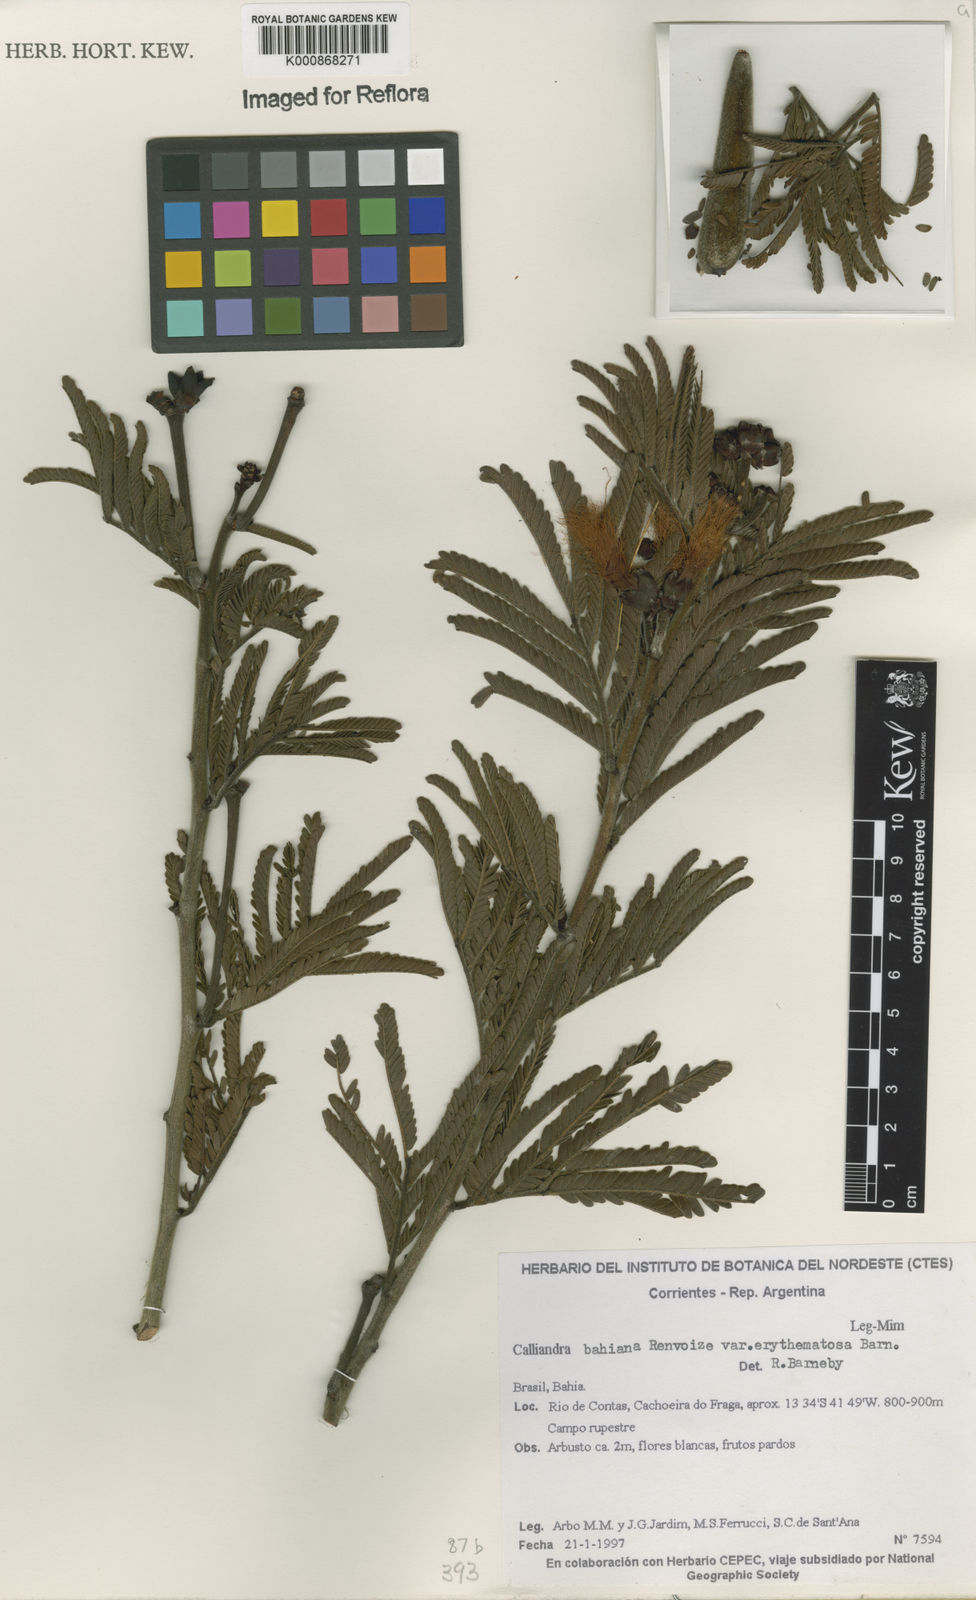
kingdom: Plantae
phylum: Tracheophyta
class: Magnoliopsida
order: Fabales
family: Fabaceae
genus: Calliandra
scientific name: Calliandra bahiana
